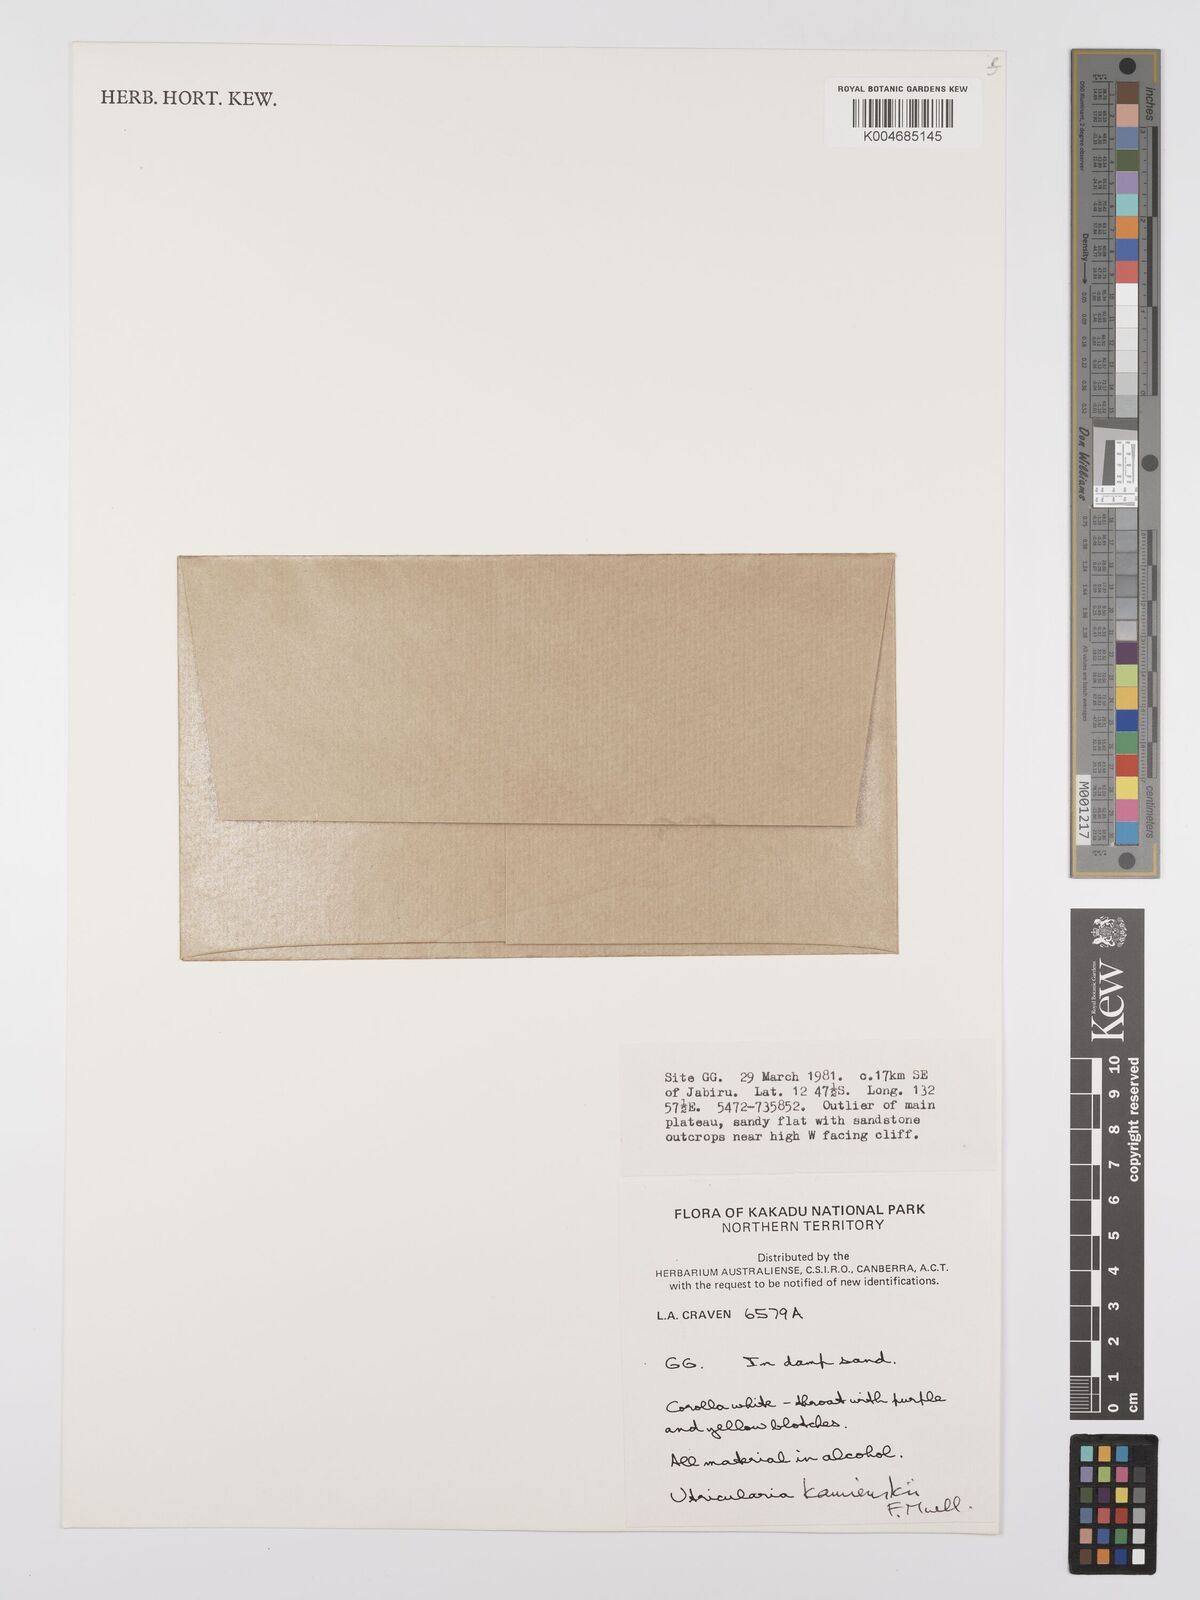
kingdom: Plantae
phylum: Tracheophyta
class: Magnoliopsida
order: Lamiales
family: Lentibulariaceae
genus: Utricularia
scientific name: Utricularia kamienskii
